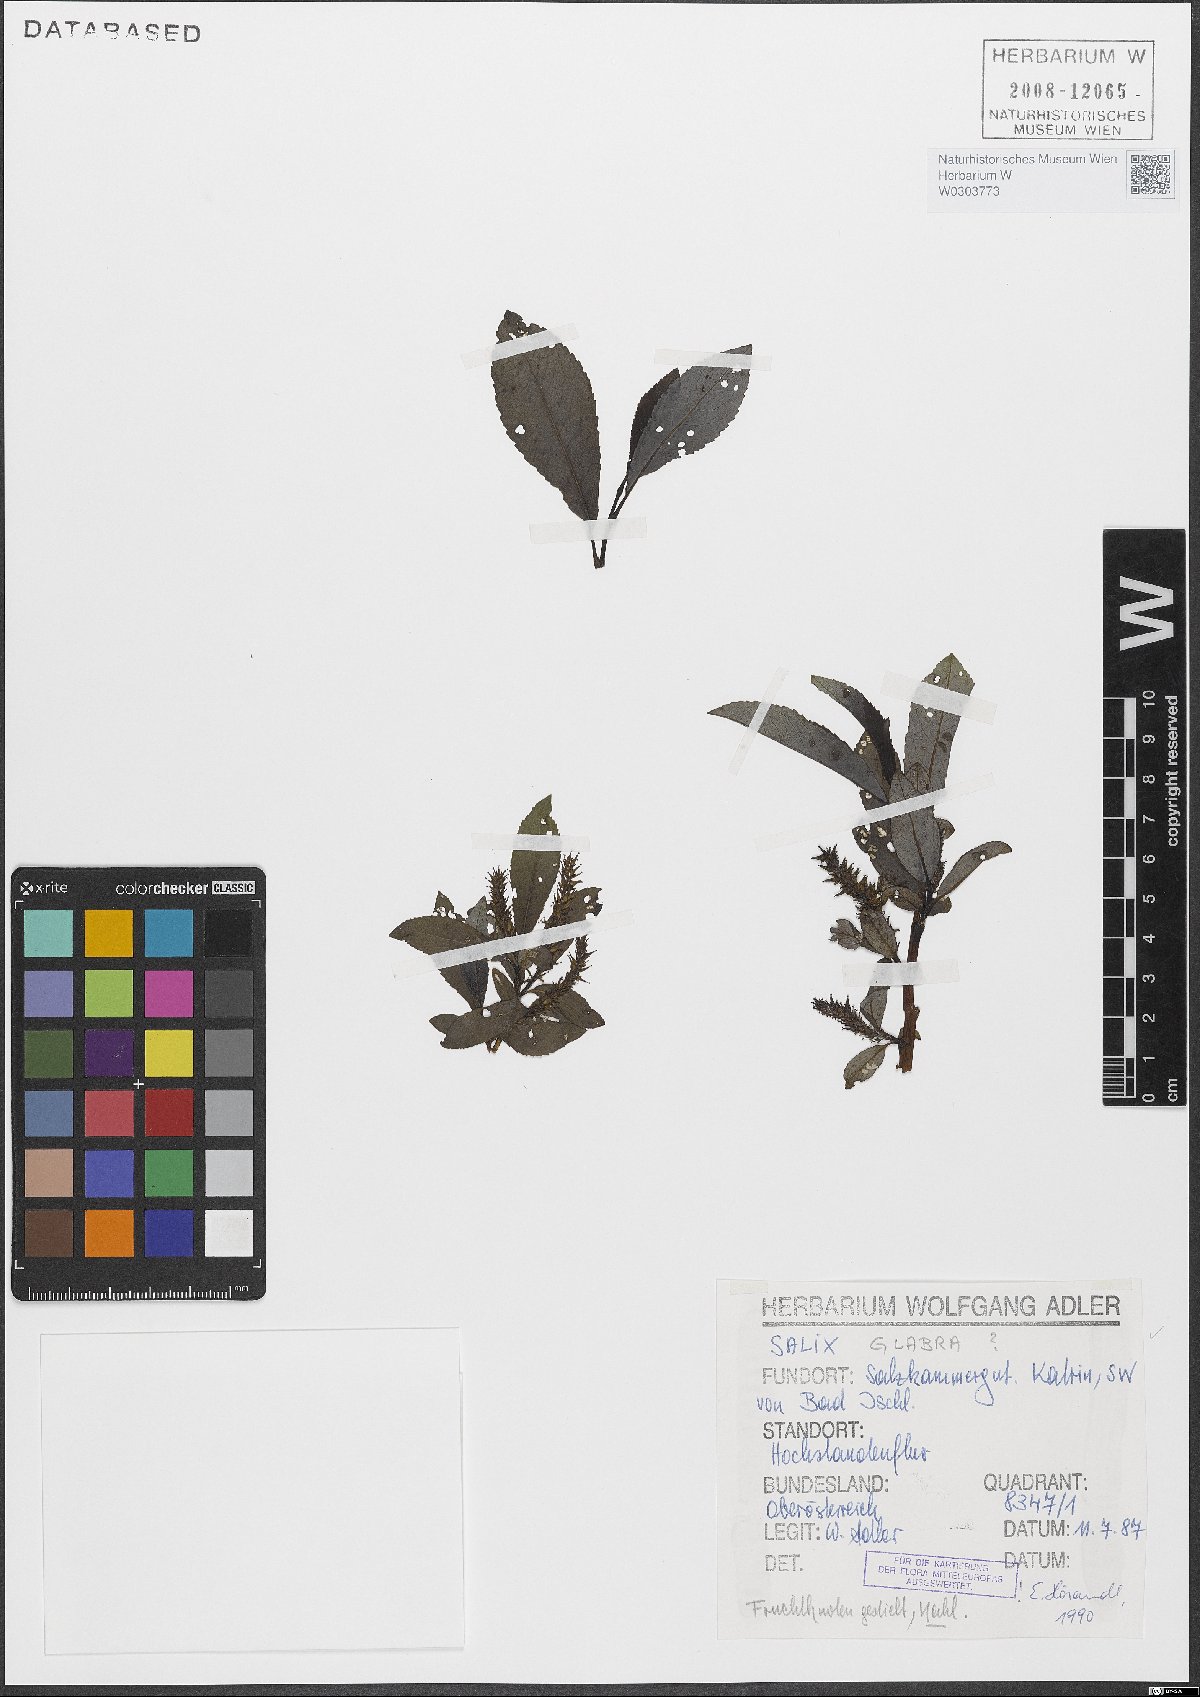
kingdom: Plantae
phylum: Tracheophyta
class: Magnoliopsida
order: Malpighiales
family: Salicaceae
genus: Salix
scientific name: Salix glabra
